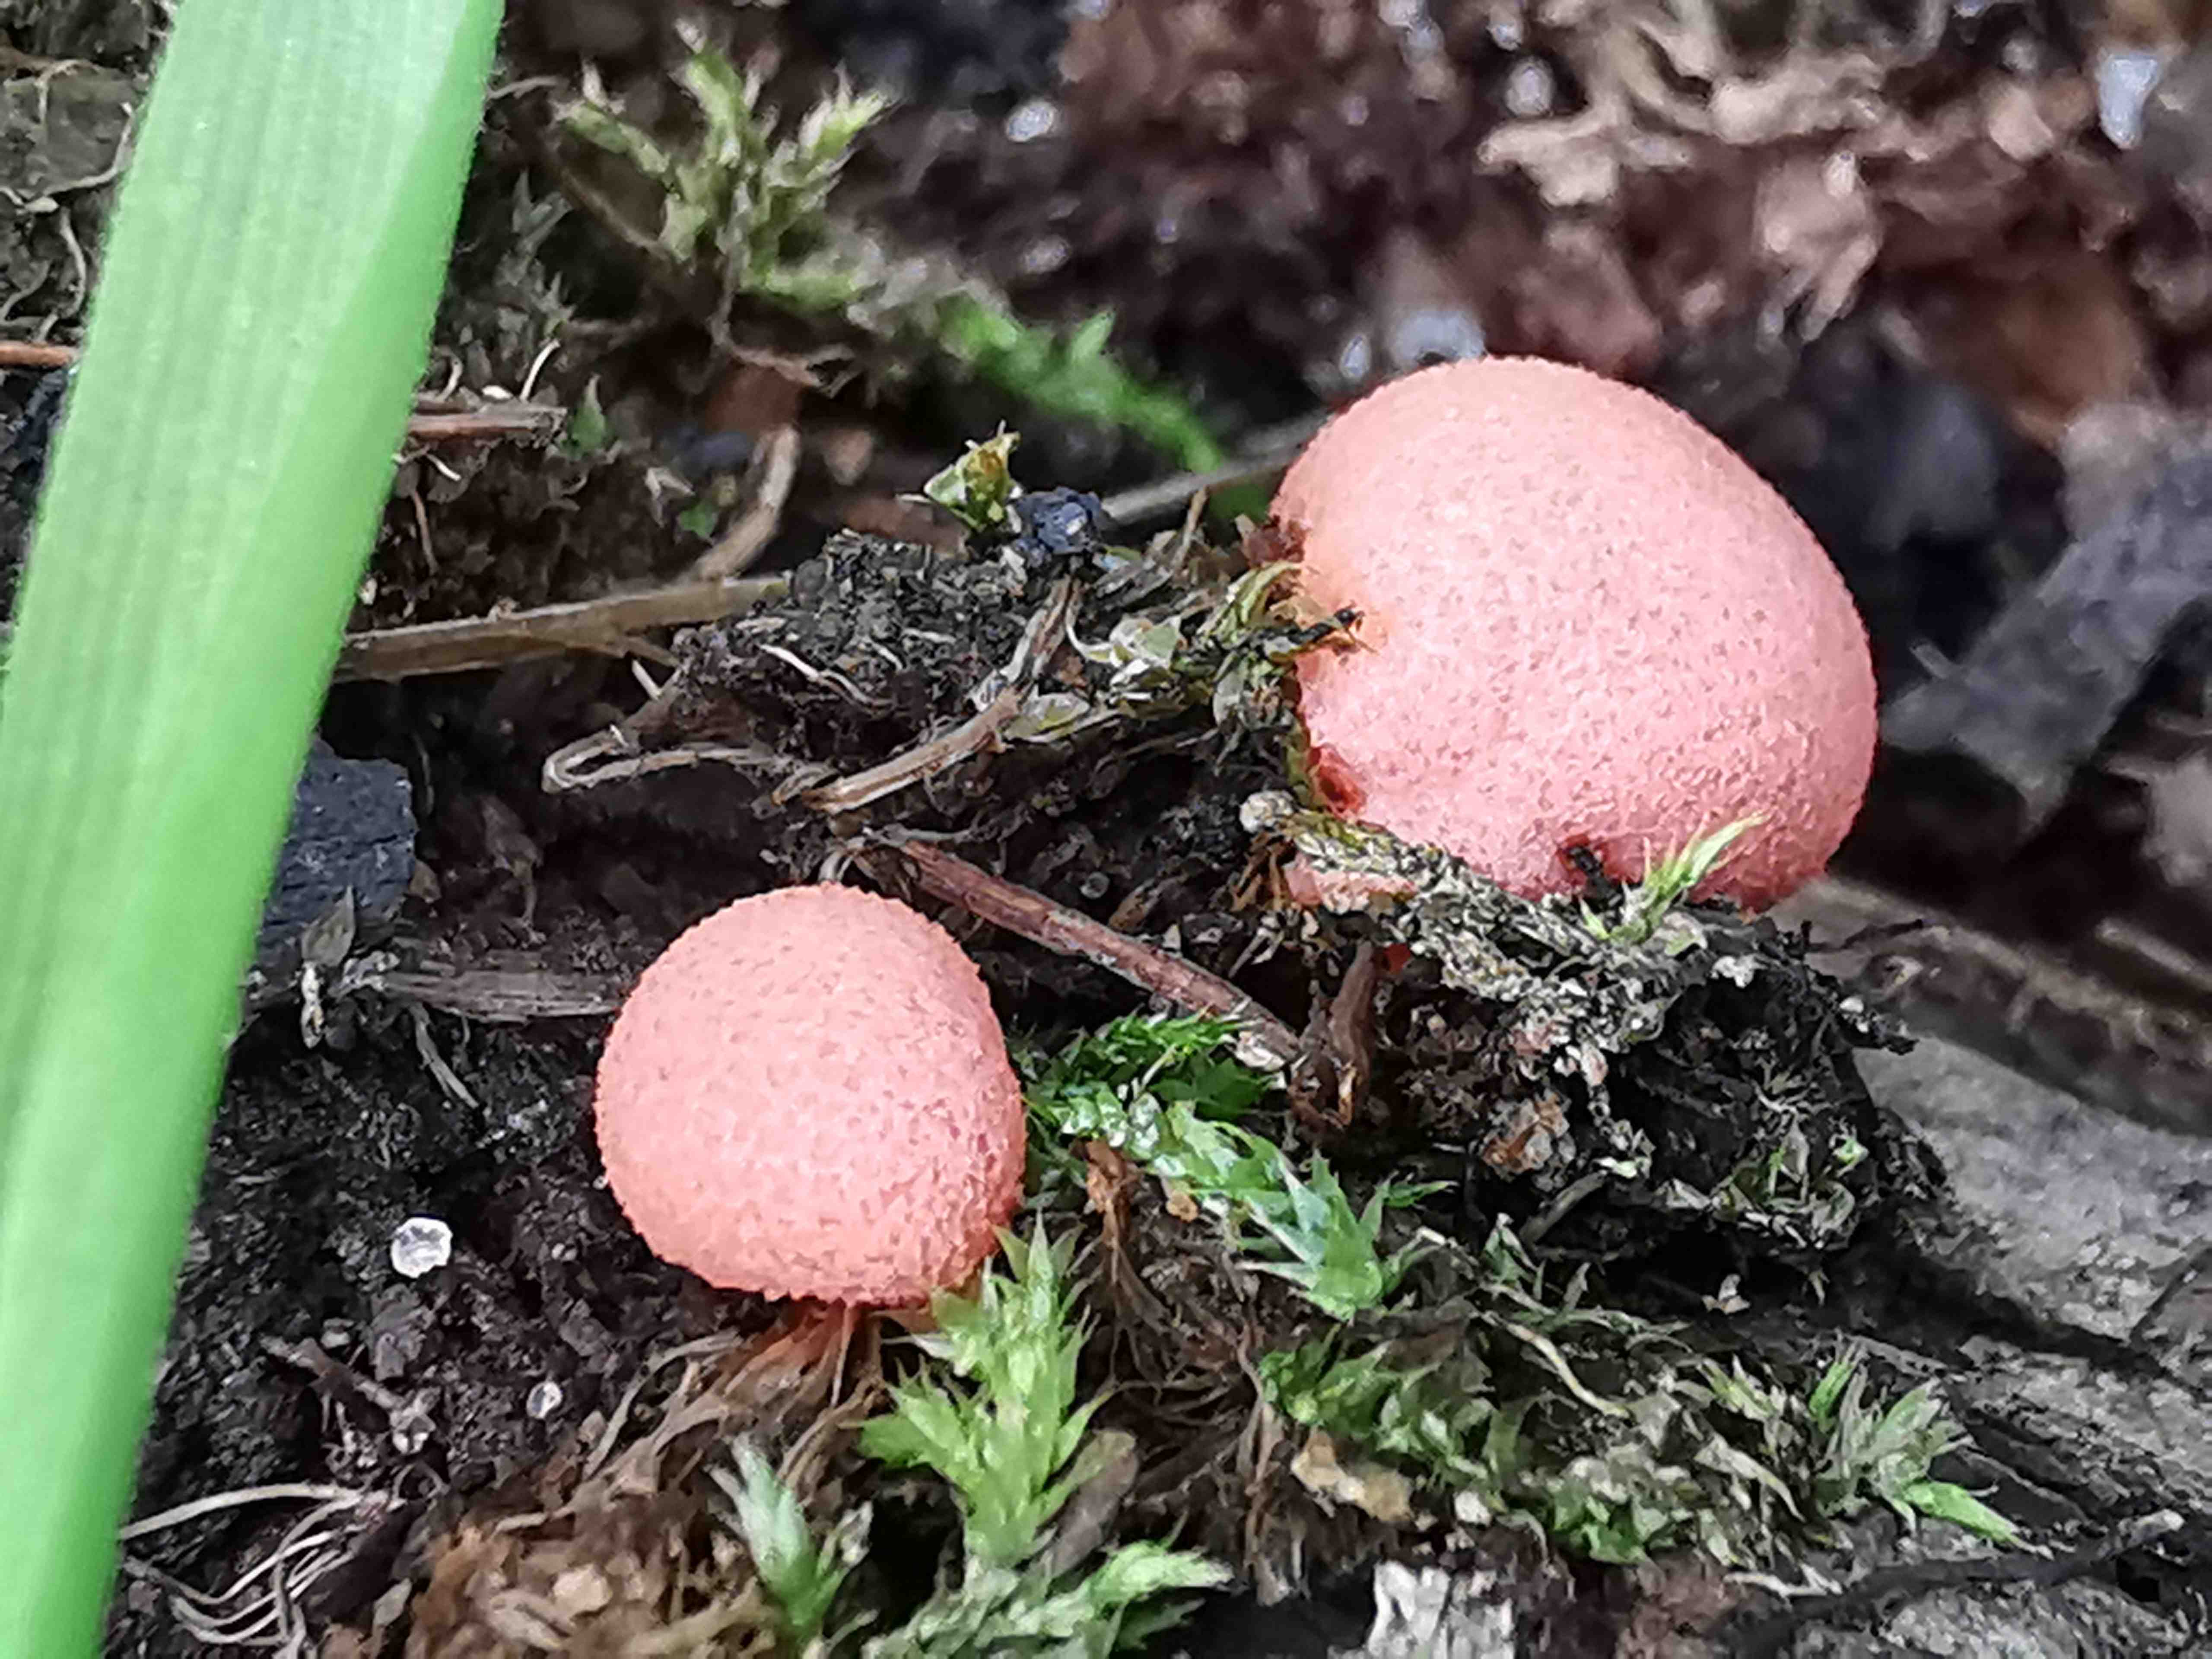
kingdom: Protozoa
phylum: Mycetozoa
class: Myxomycetes
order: Cribrariales
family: Tubiferaceae
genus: Lycogala
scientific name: Lycogala epidendrum
